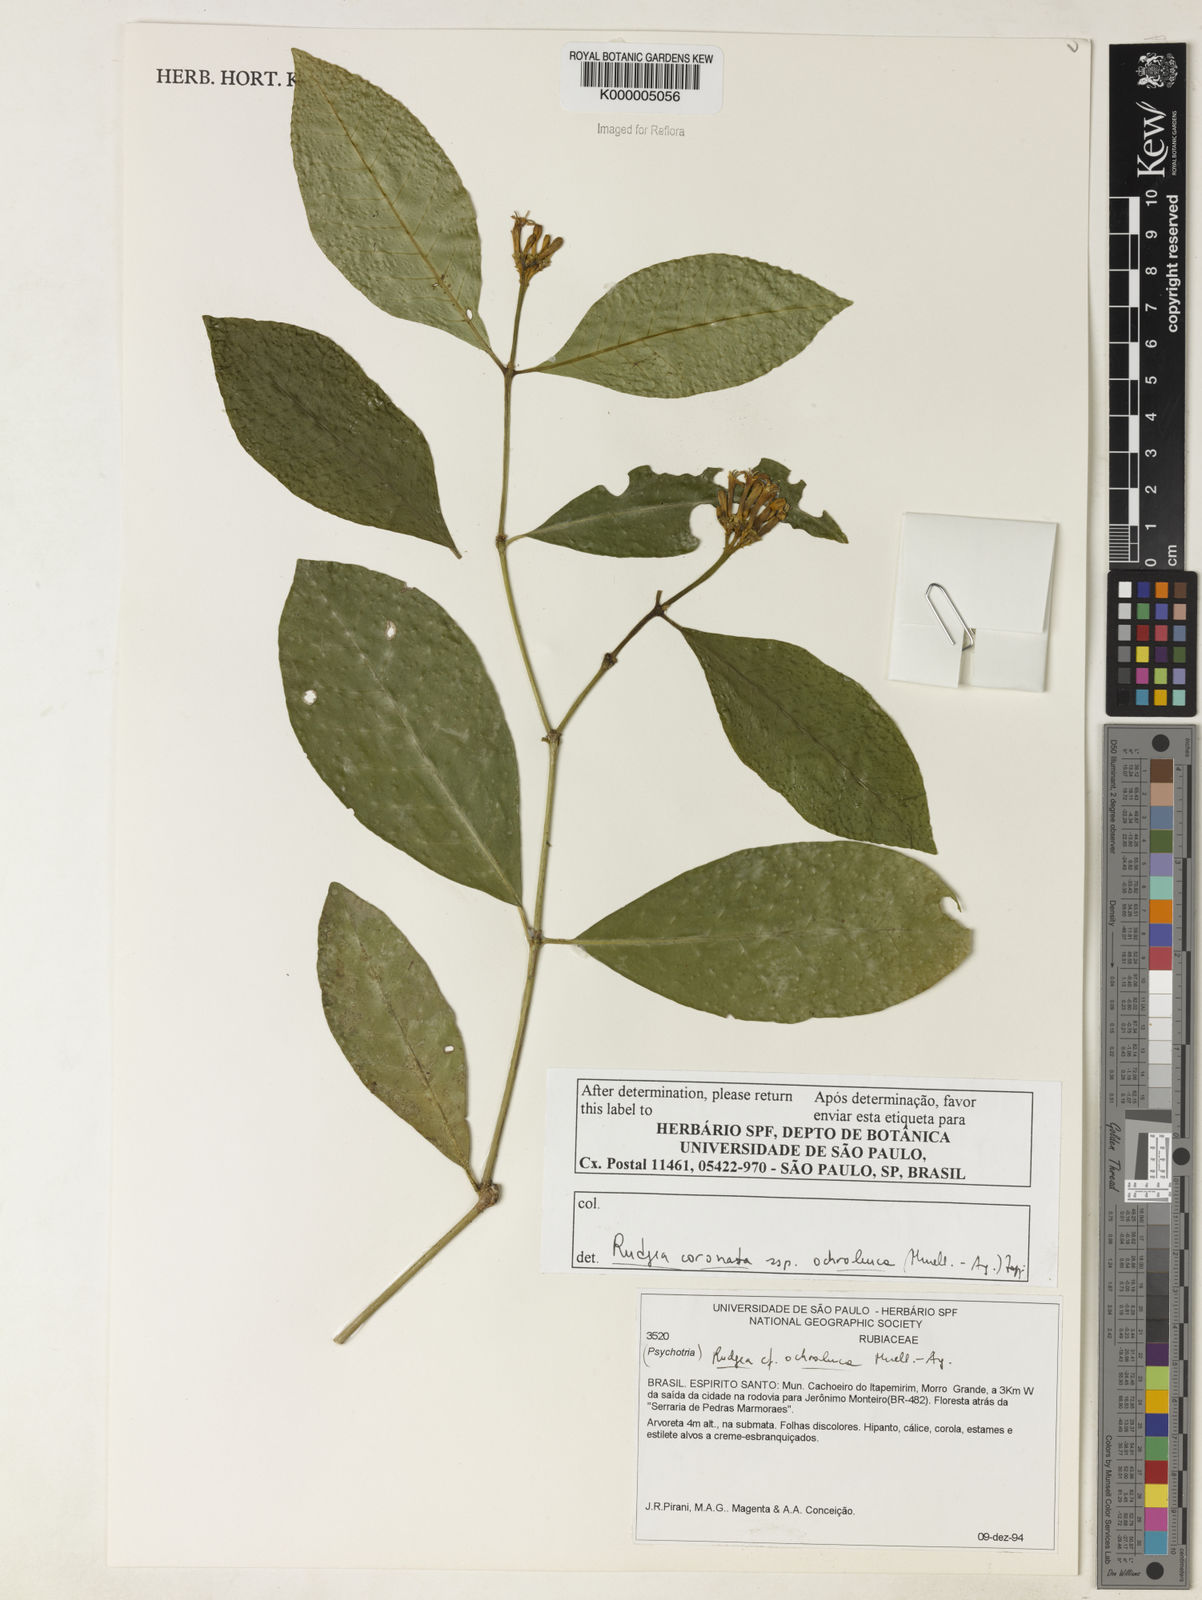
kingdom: Plantae
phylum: Tracheophyta
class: Magnoliopsida
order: Gentianales
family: Rubiaceae
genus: Rudgea
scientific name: Rudgea coronata
